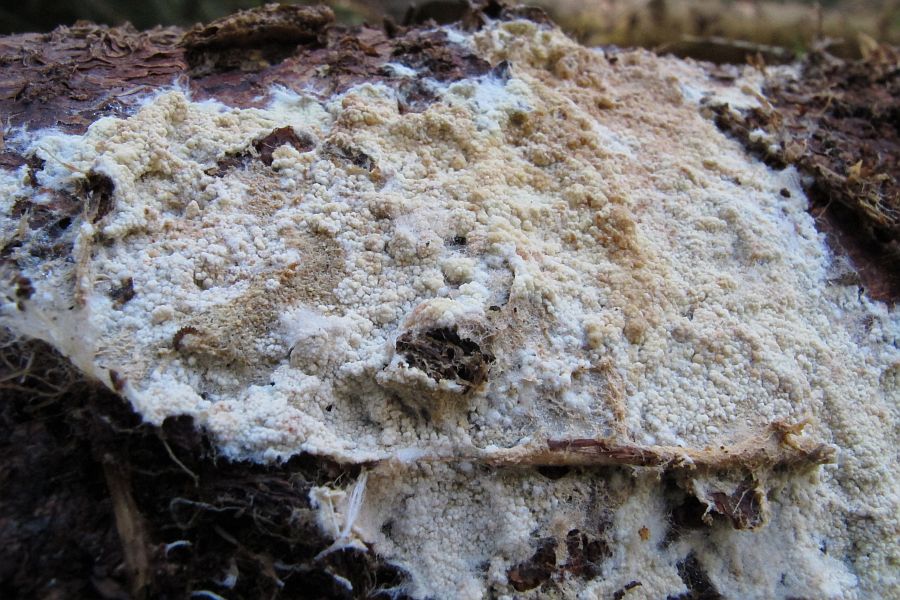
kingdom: Fungi
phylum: Basidiomycota
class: Agaricomycetes
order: Agaricales
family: Stephanosporaceae
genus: Cristinia
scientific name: Cristinia helvetica
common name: glatsporet citrushinde
